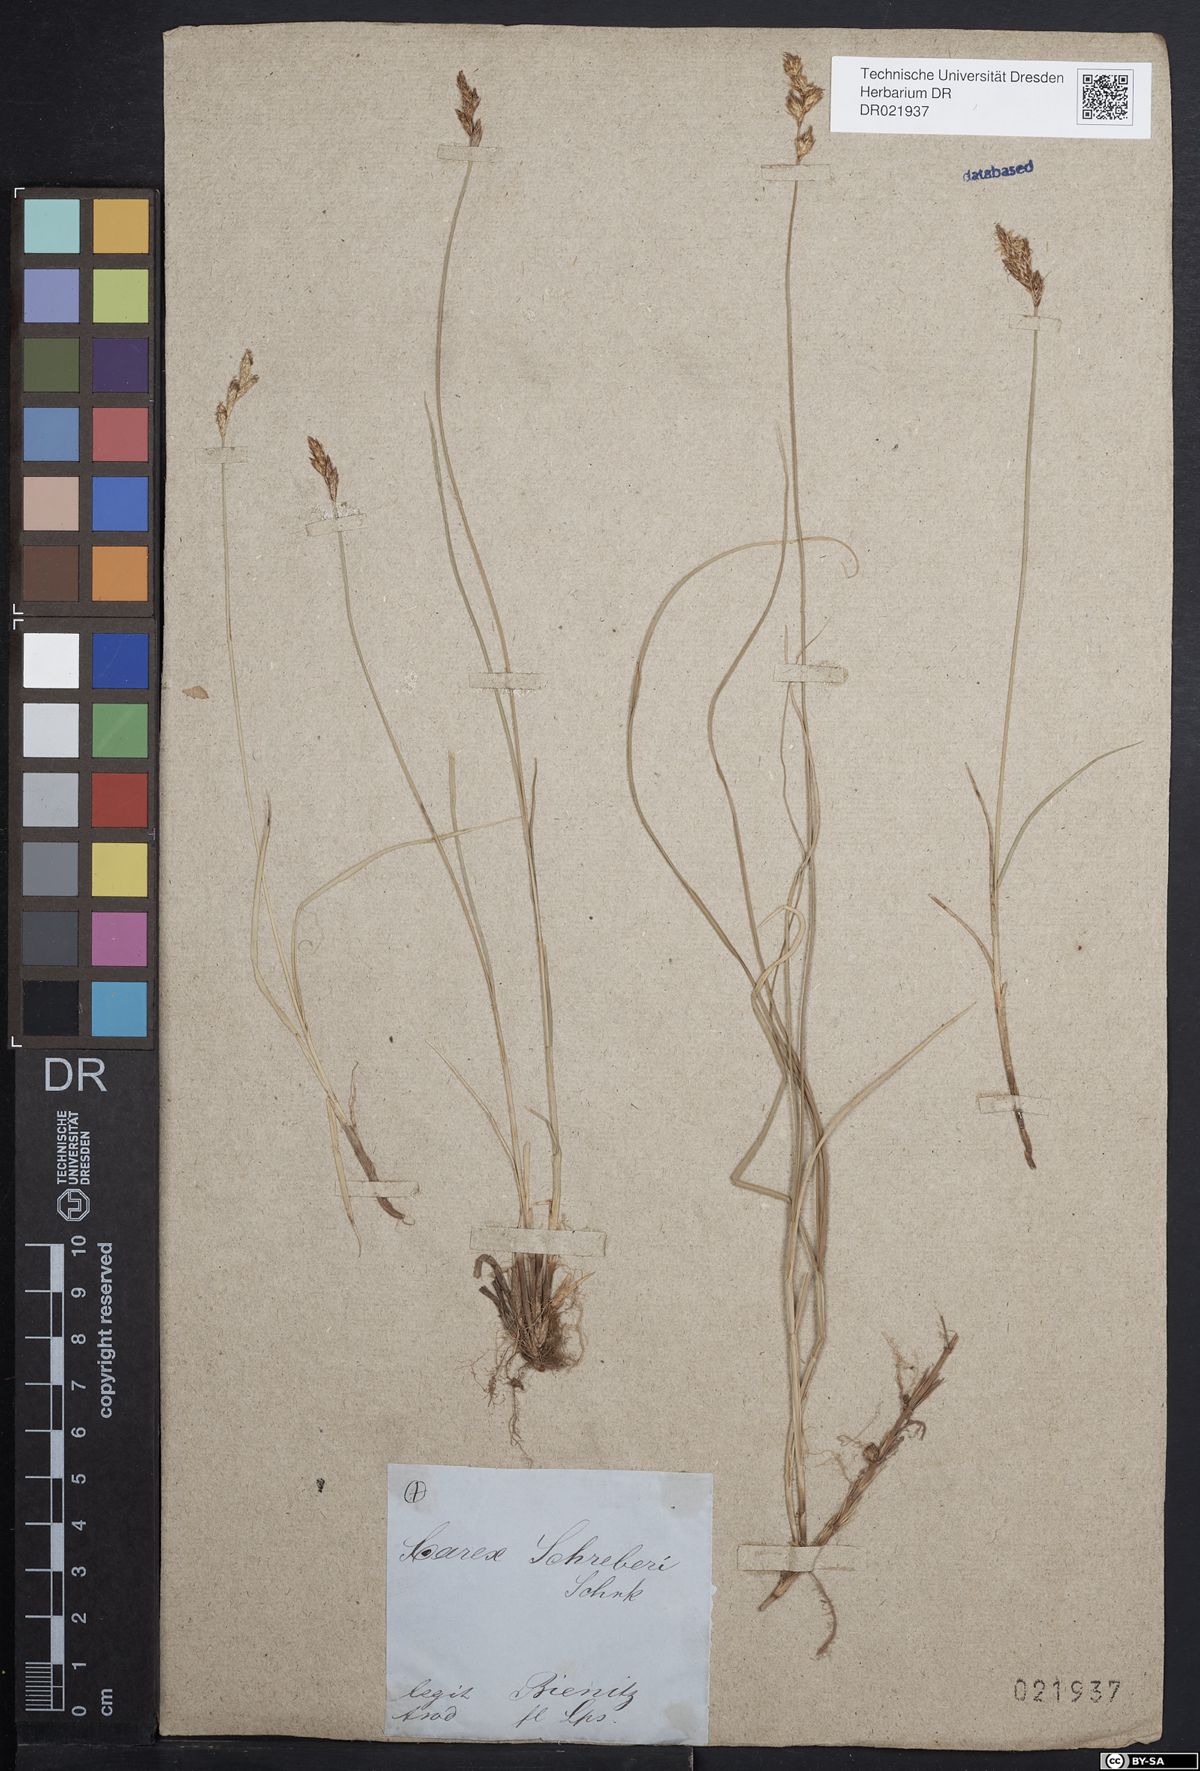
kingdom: Plantae
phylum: Tracheophyta
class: Liliopsida
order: Poales
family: Cyperaceae
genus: Carex
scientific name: Carex praecox
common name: Early sedge
